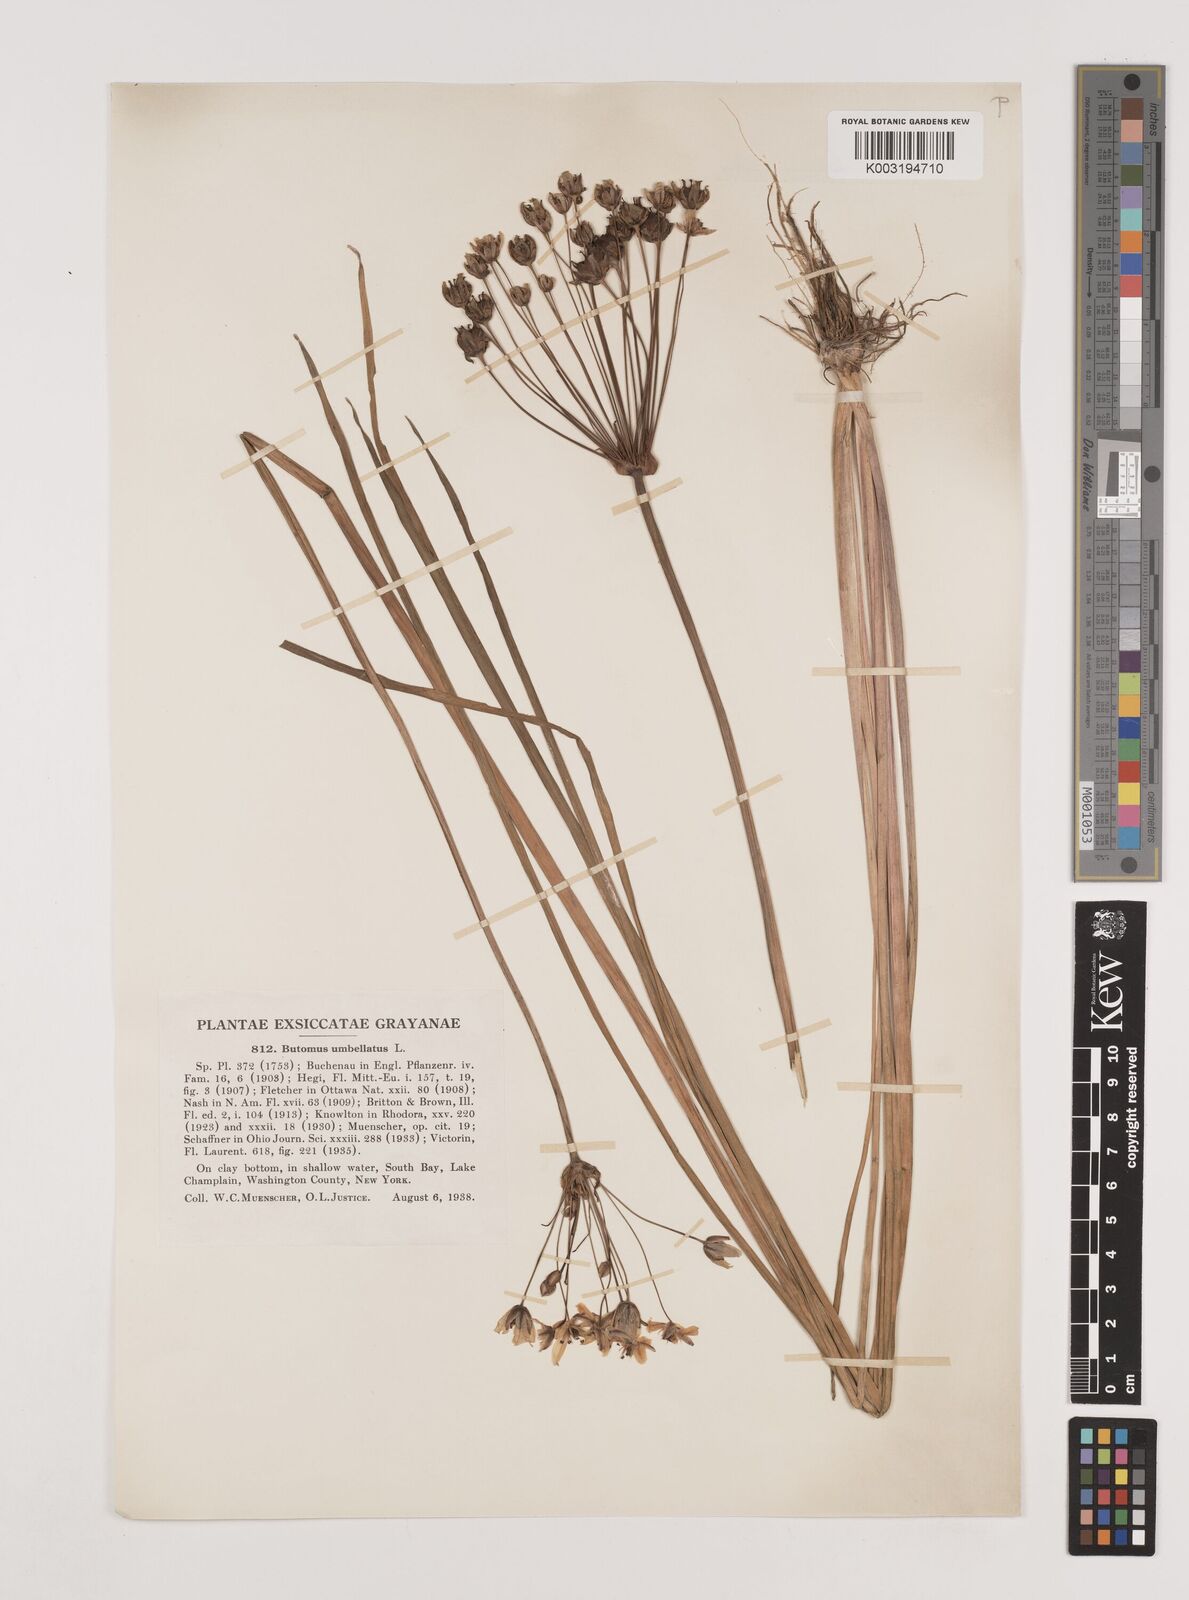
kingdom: Plantae
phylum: Tracheophyta
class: Liliopsida
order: Alismatales
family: Butomaceae
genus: Butomus
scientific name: Butomus umbellatus
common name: Flowering-rush
